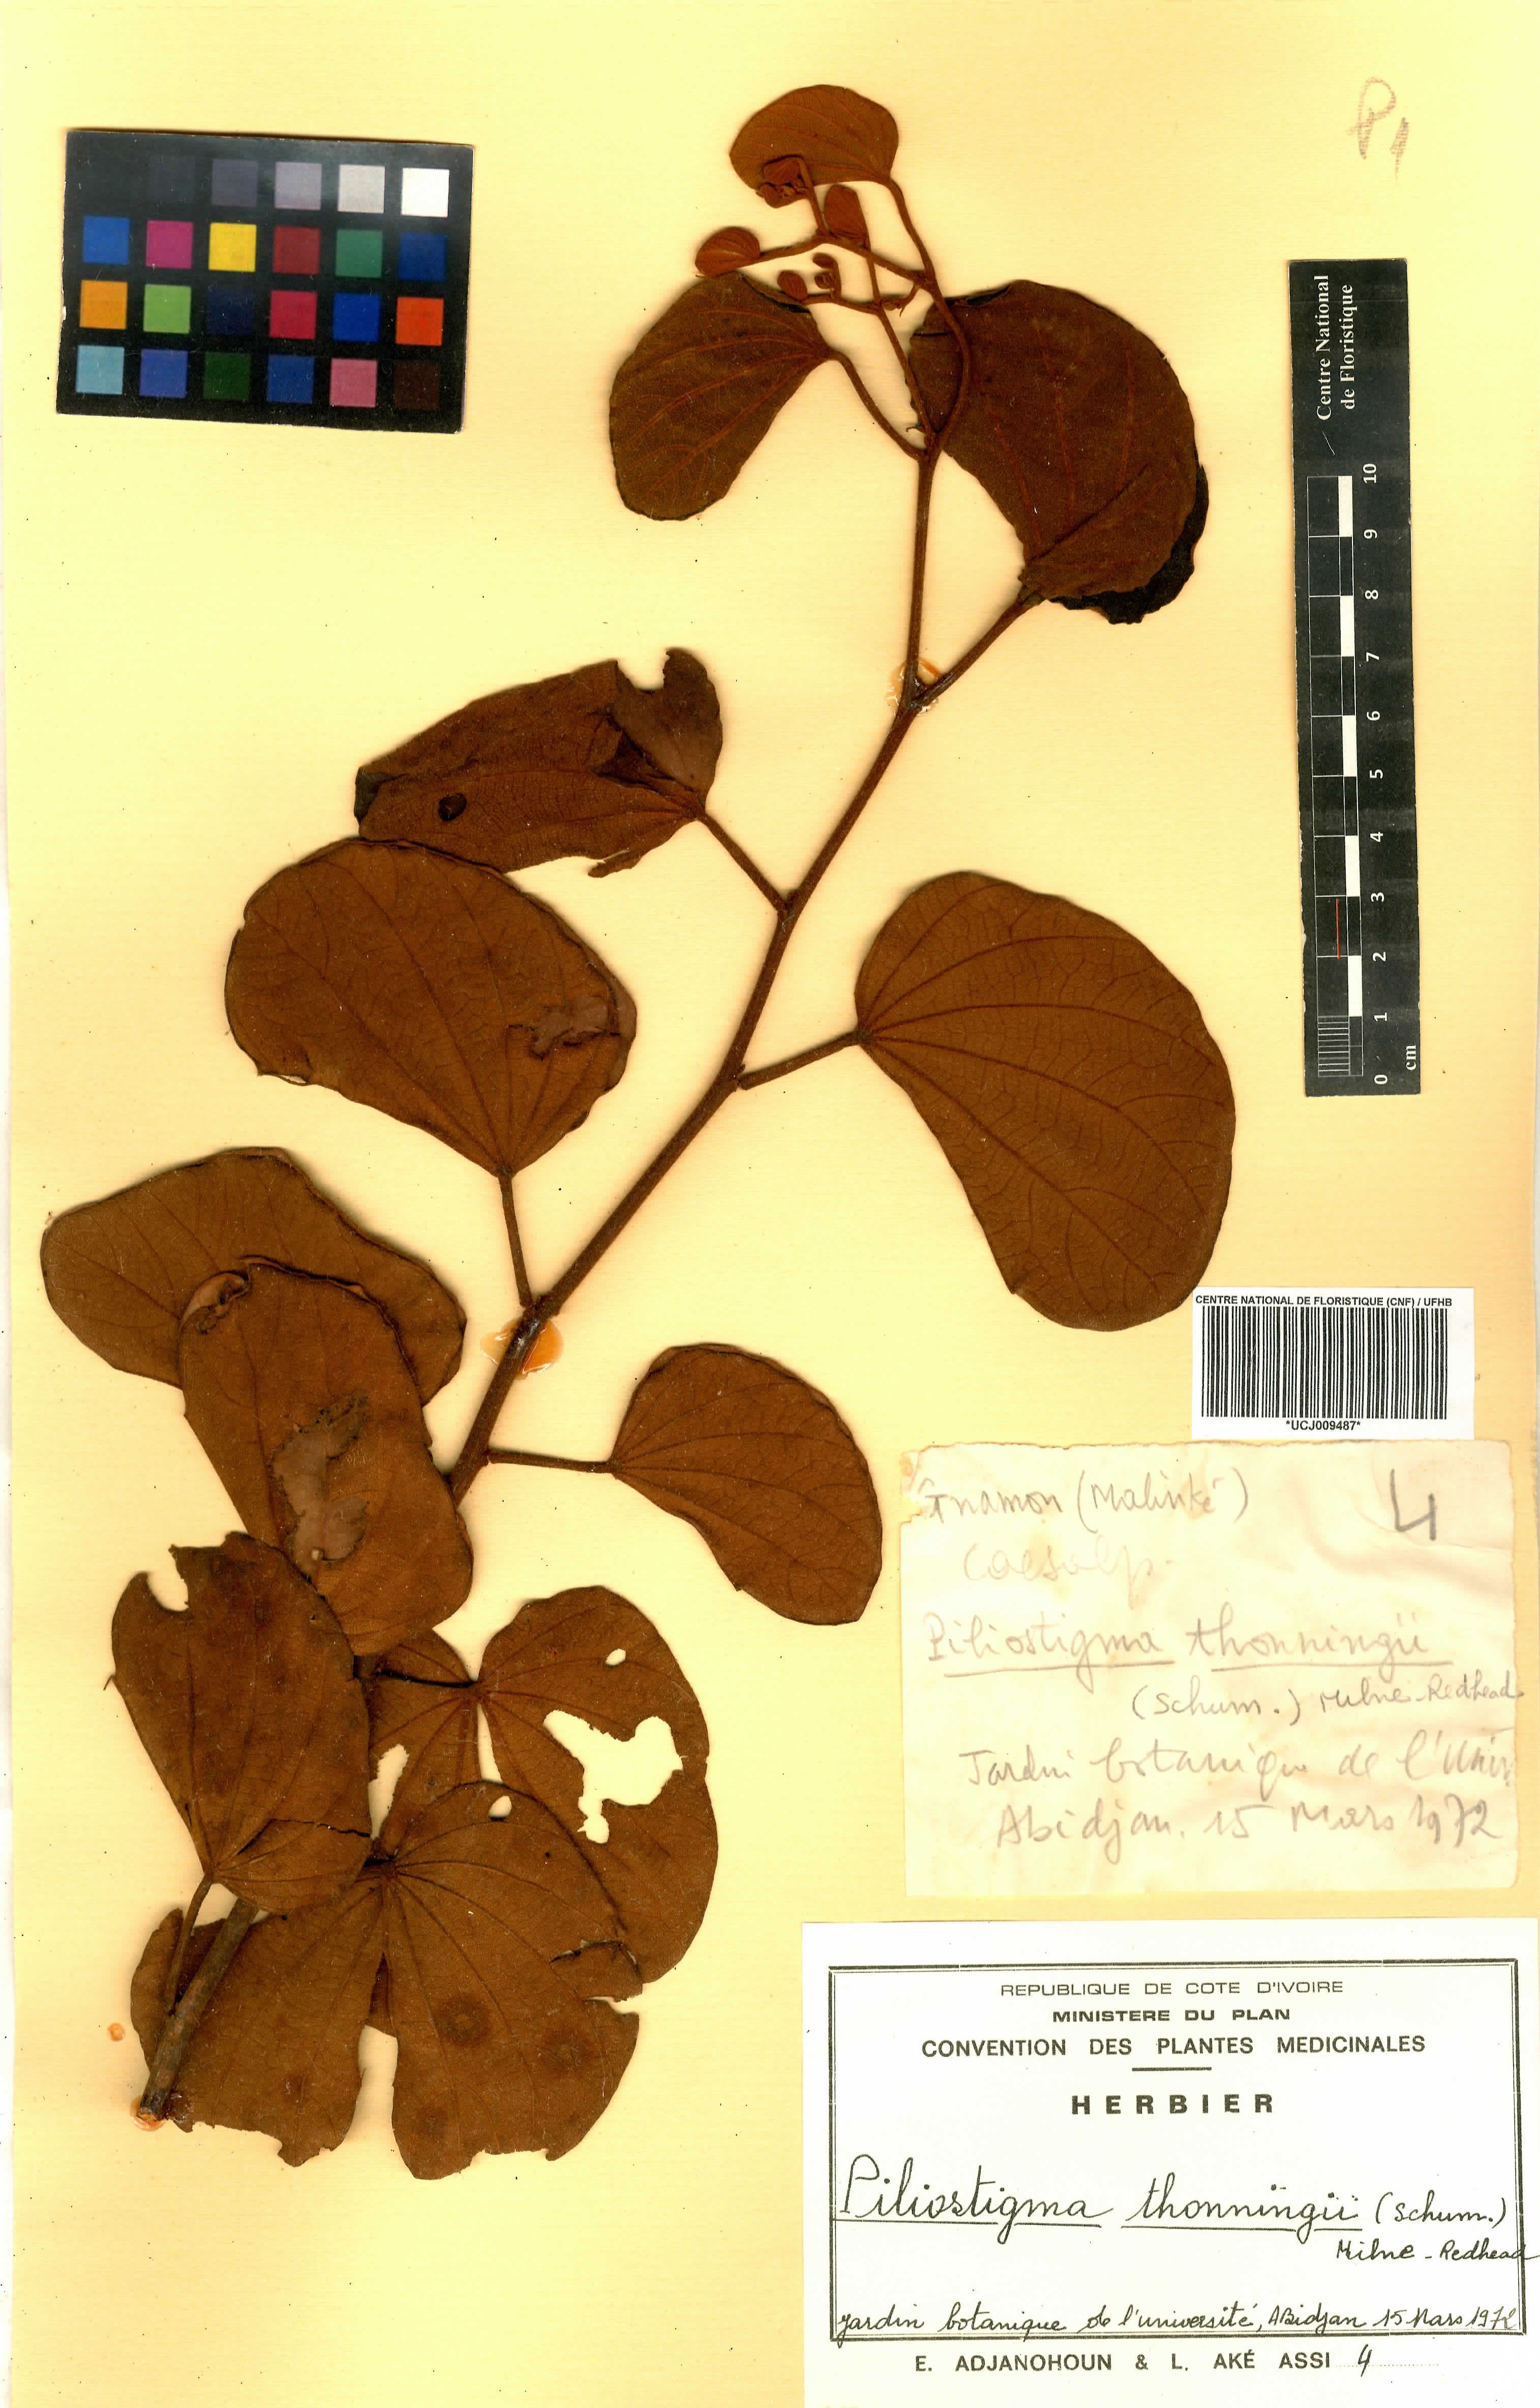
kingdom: Plantae
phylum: Tracheophyta
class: Magnoliopsida
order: Fabales
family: Fabaceae
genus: Piliostigma
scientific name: Piliostigma thonningii
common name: Kao
